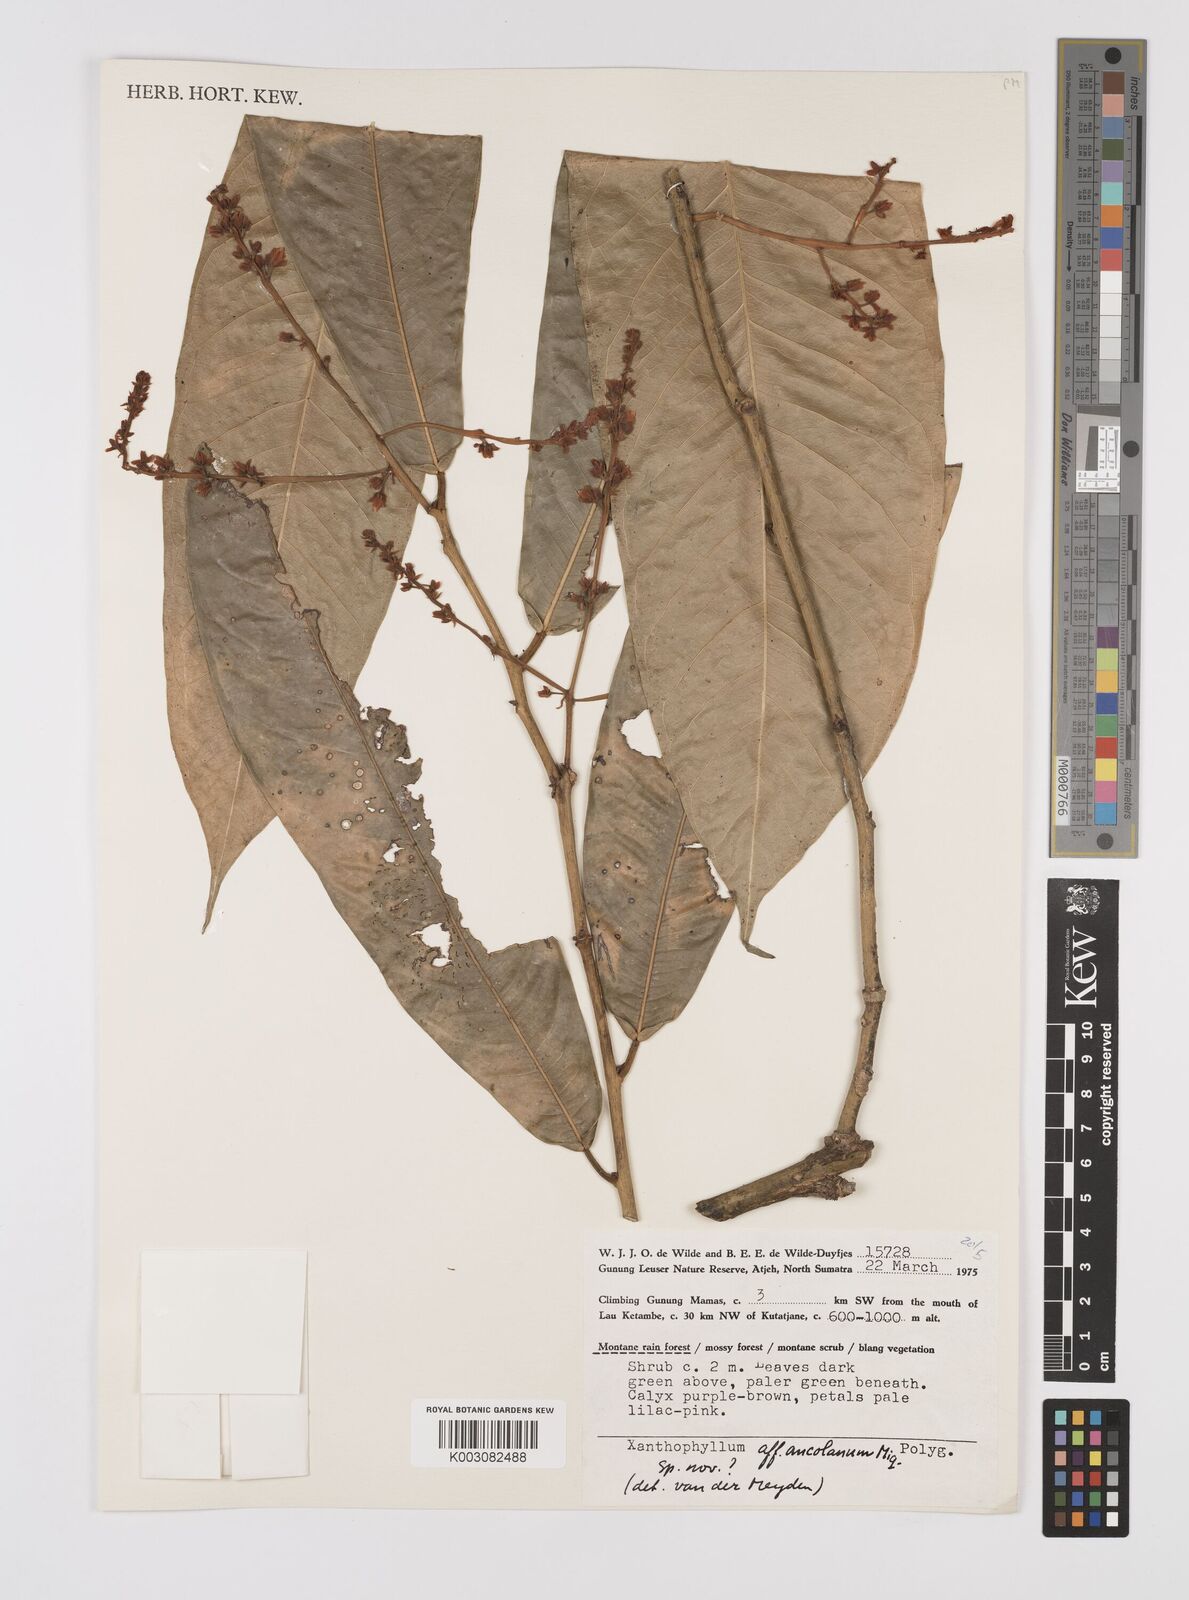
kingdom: Plantae
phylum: Tracheophyta
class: Magnoliopsida
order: Fabales
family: Polygalaceae
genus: Xanthophyllum
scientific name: Xanthophyllum ancolanum
